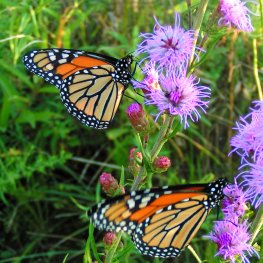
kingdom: Animalia
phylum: Arthropoda
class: Insecta
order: Lepidoptera
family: Nymphalidae
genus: Danaus
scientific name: Danaus plexippus
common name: Monarch
